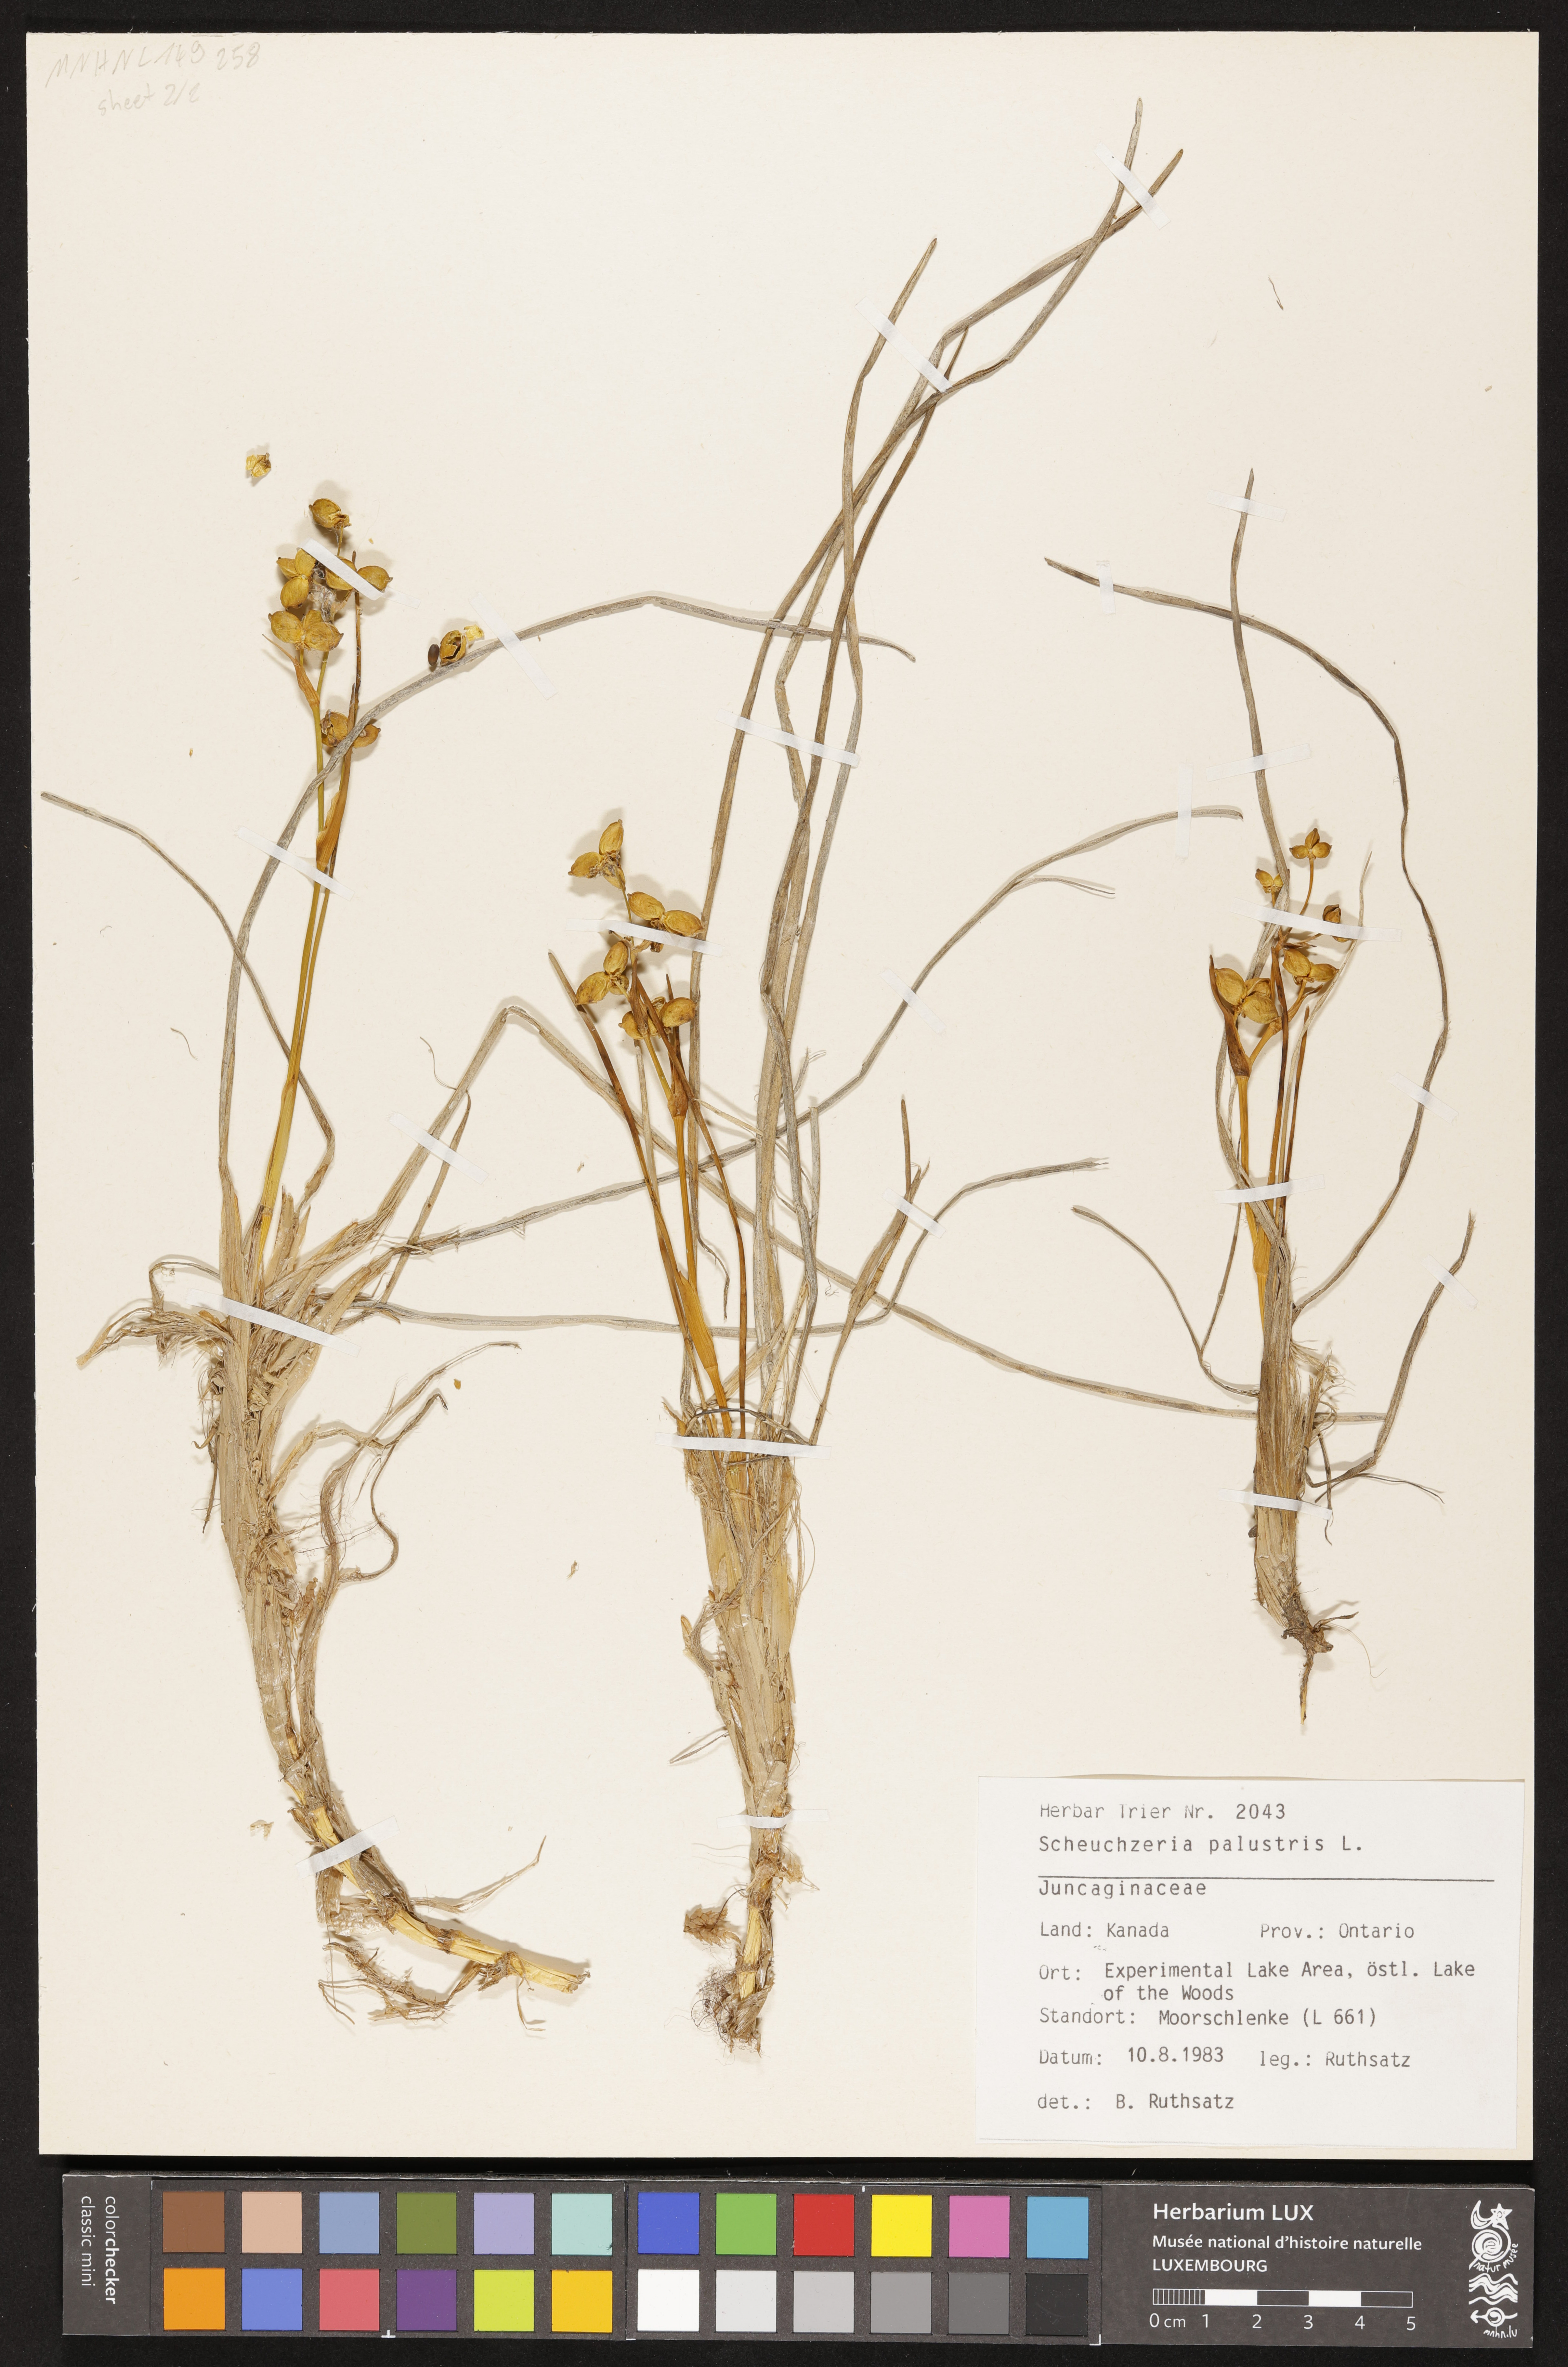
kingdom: Plantae
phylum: Tracheophyta
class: Liliopsida
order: Alismatales
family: Scheuchzeriaceae
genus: Scheuchzeria
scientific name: Scheuchzeria palustris
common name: Rannoch-rush
